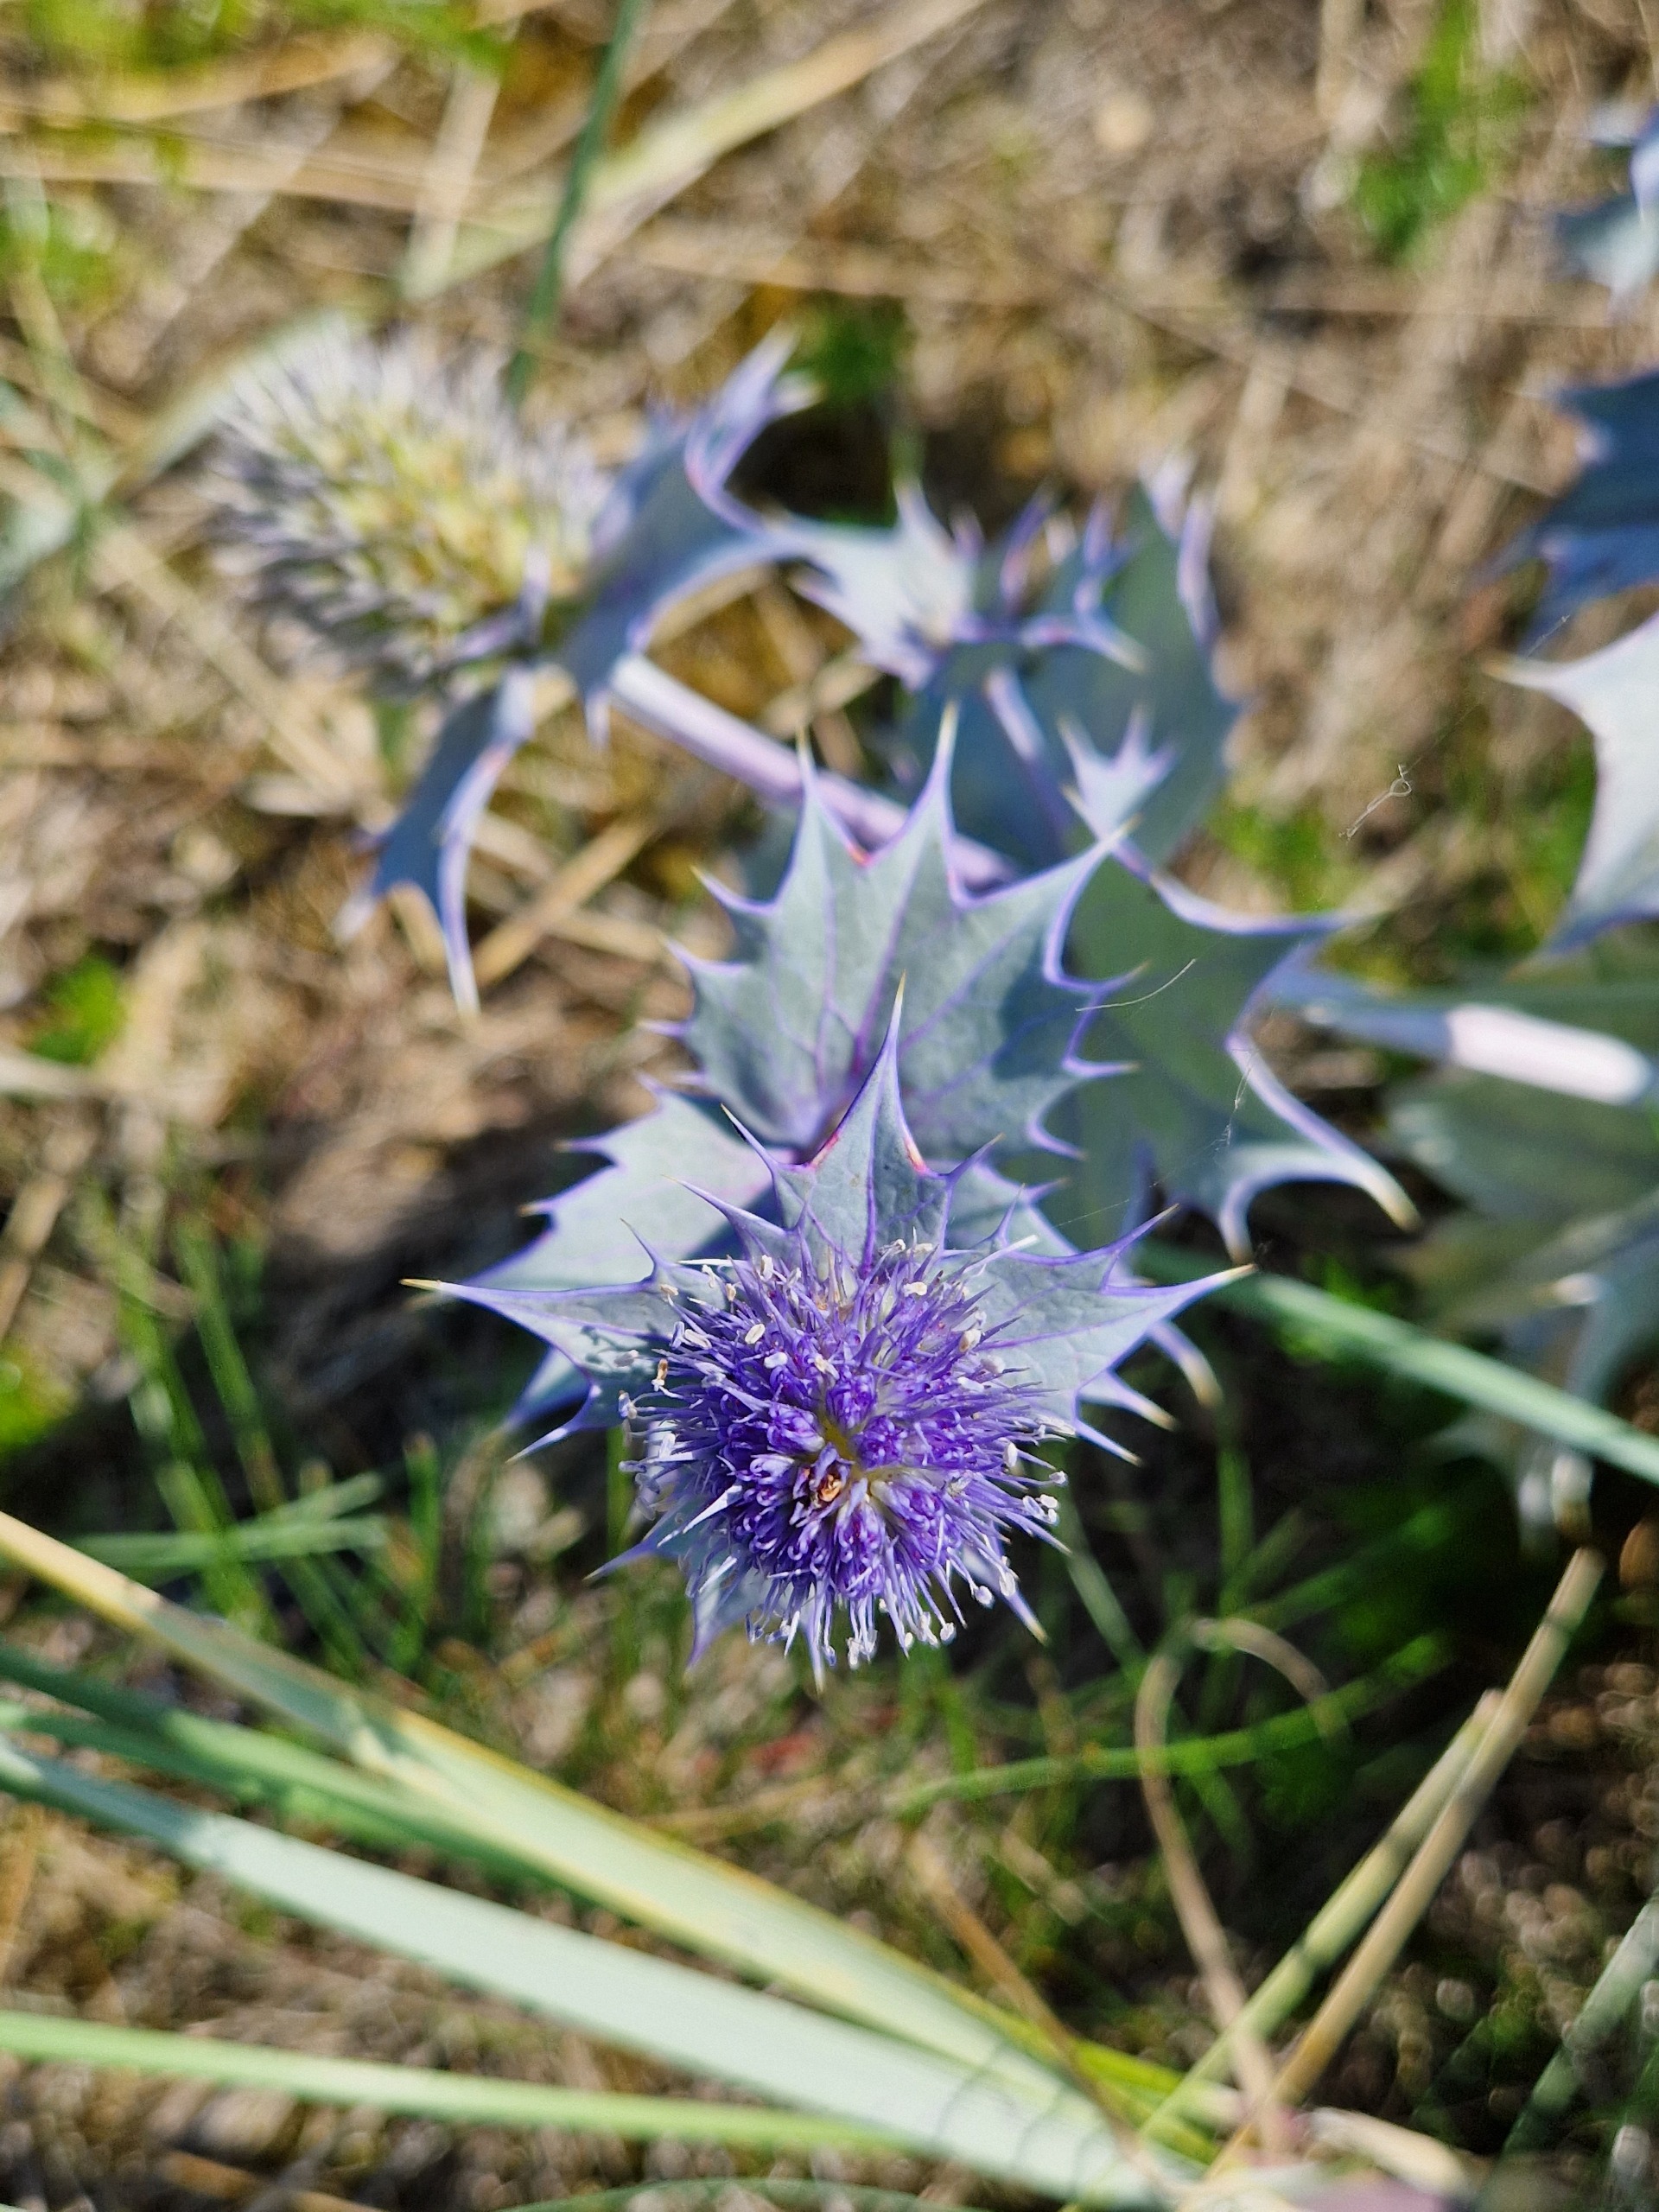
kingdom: Plantae
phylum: Tracheophyta
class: Magnoliopsida
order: Apiales
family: Apiaceae
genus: Eryngium
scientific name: Eryngium maritimum
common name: Strand-mandstro
